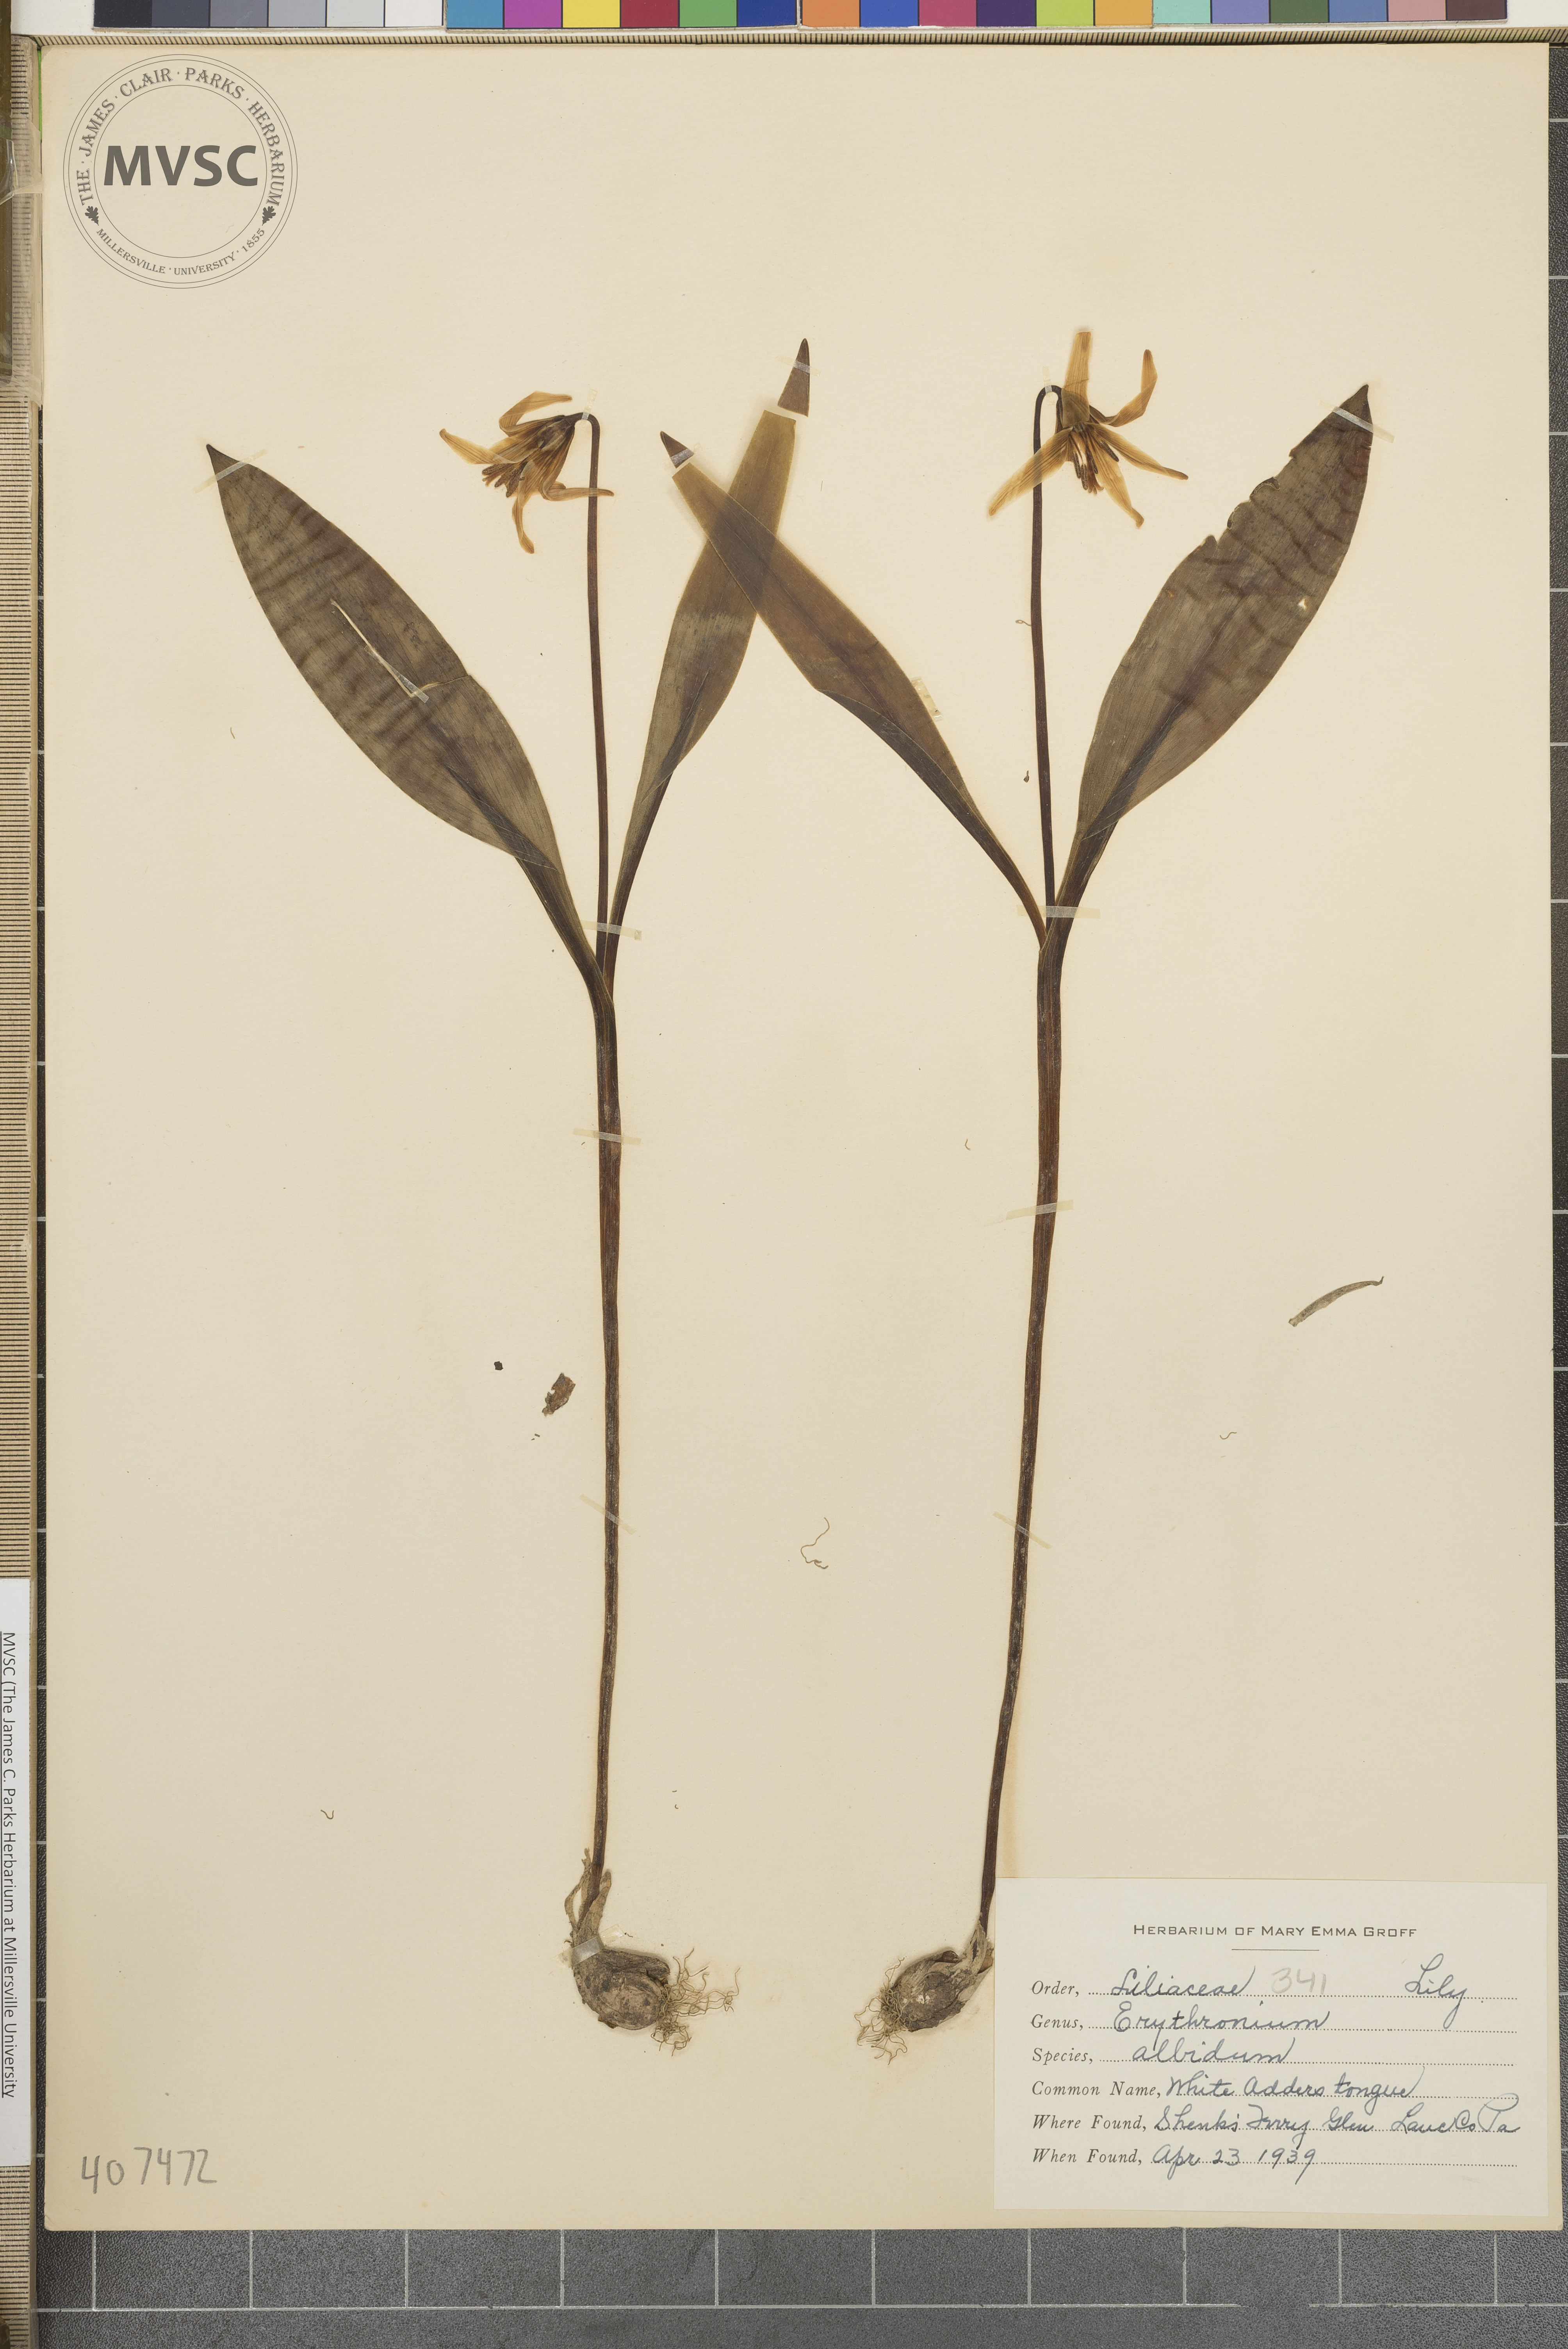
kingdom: Plantae
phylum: Tracheophyta
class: Liliopsida
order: Liliales
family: Liliaceae
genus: Erythronium
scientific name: Erythronium albidum
